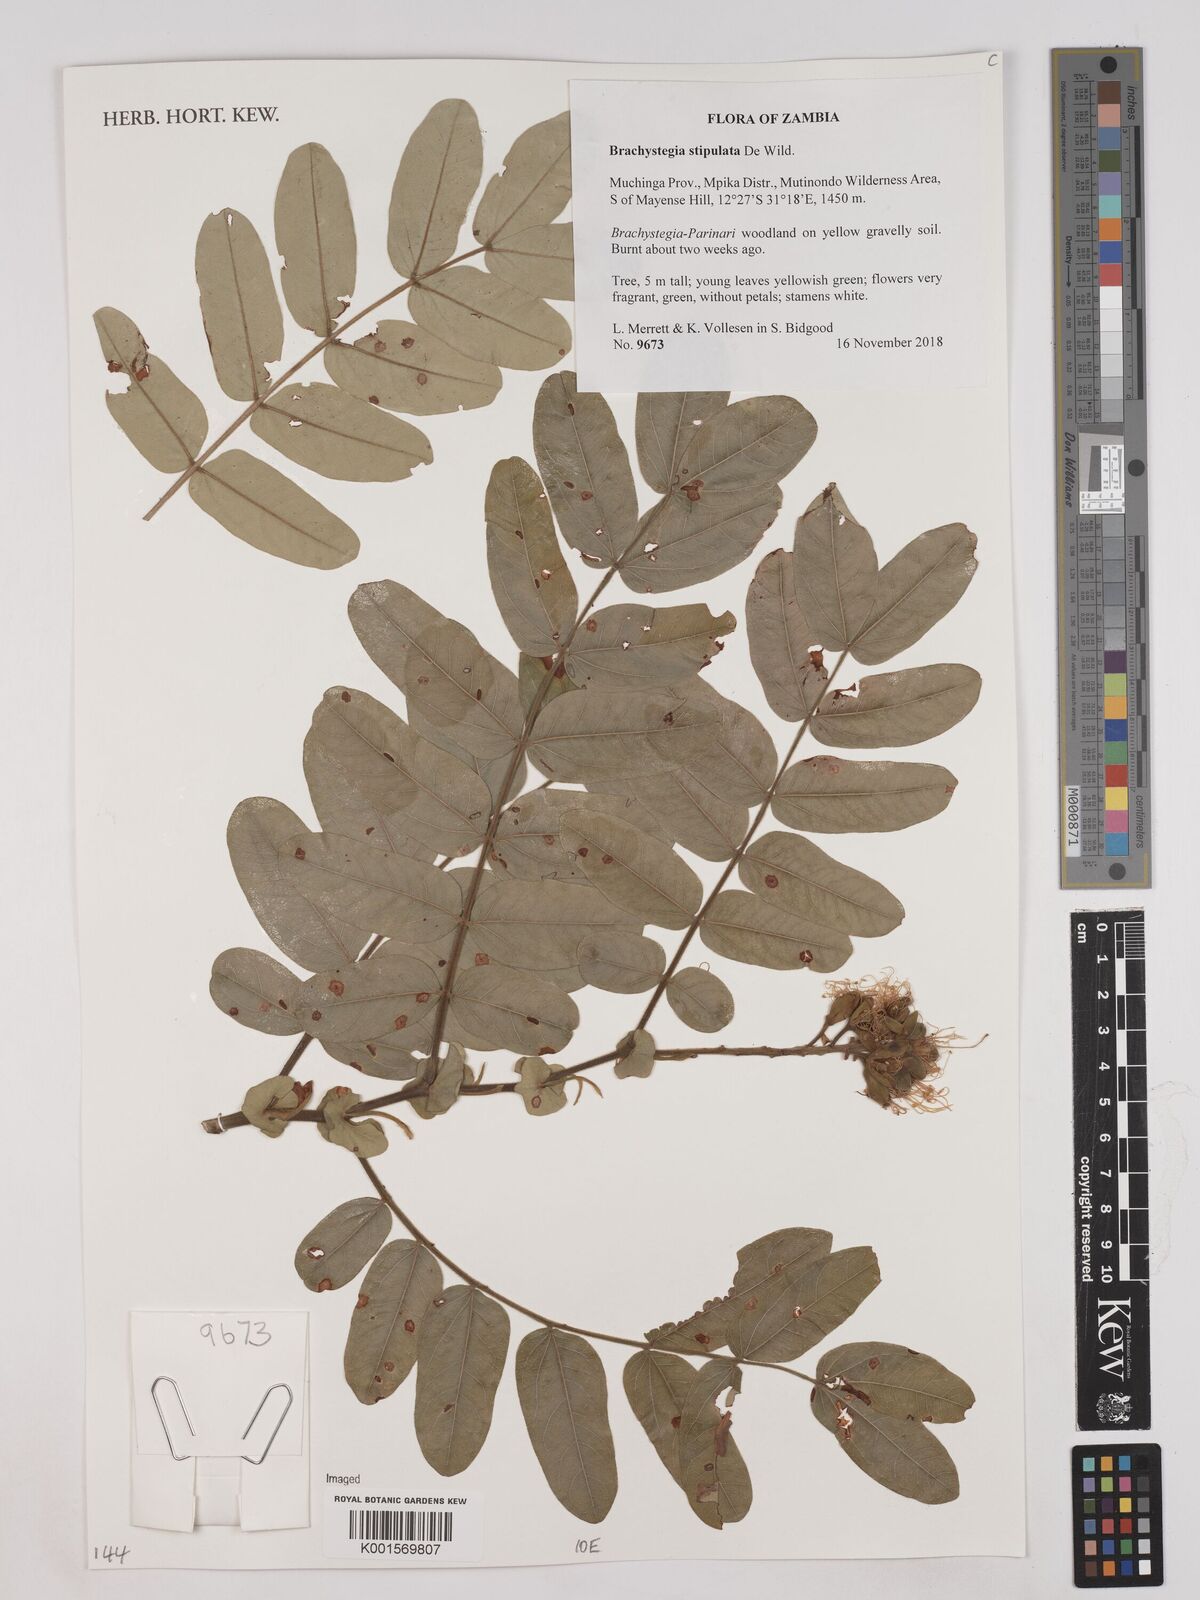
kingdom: Plantae
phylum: Tracheophyta
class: Magnoliopsida
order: Fabales
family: Fabaceae
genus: Brachystegia
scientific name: Brachystegia stipulata
